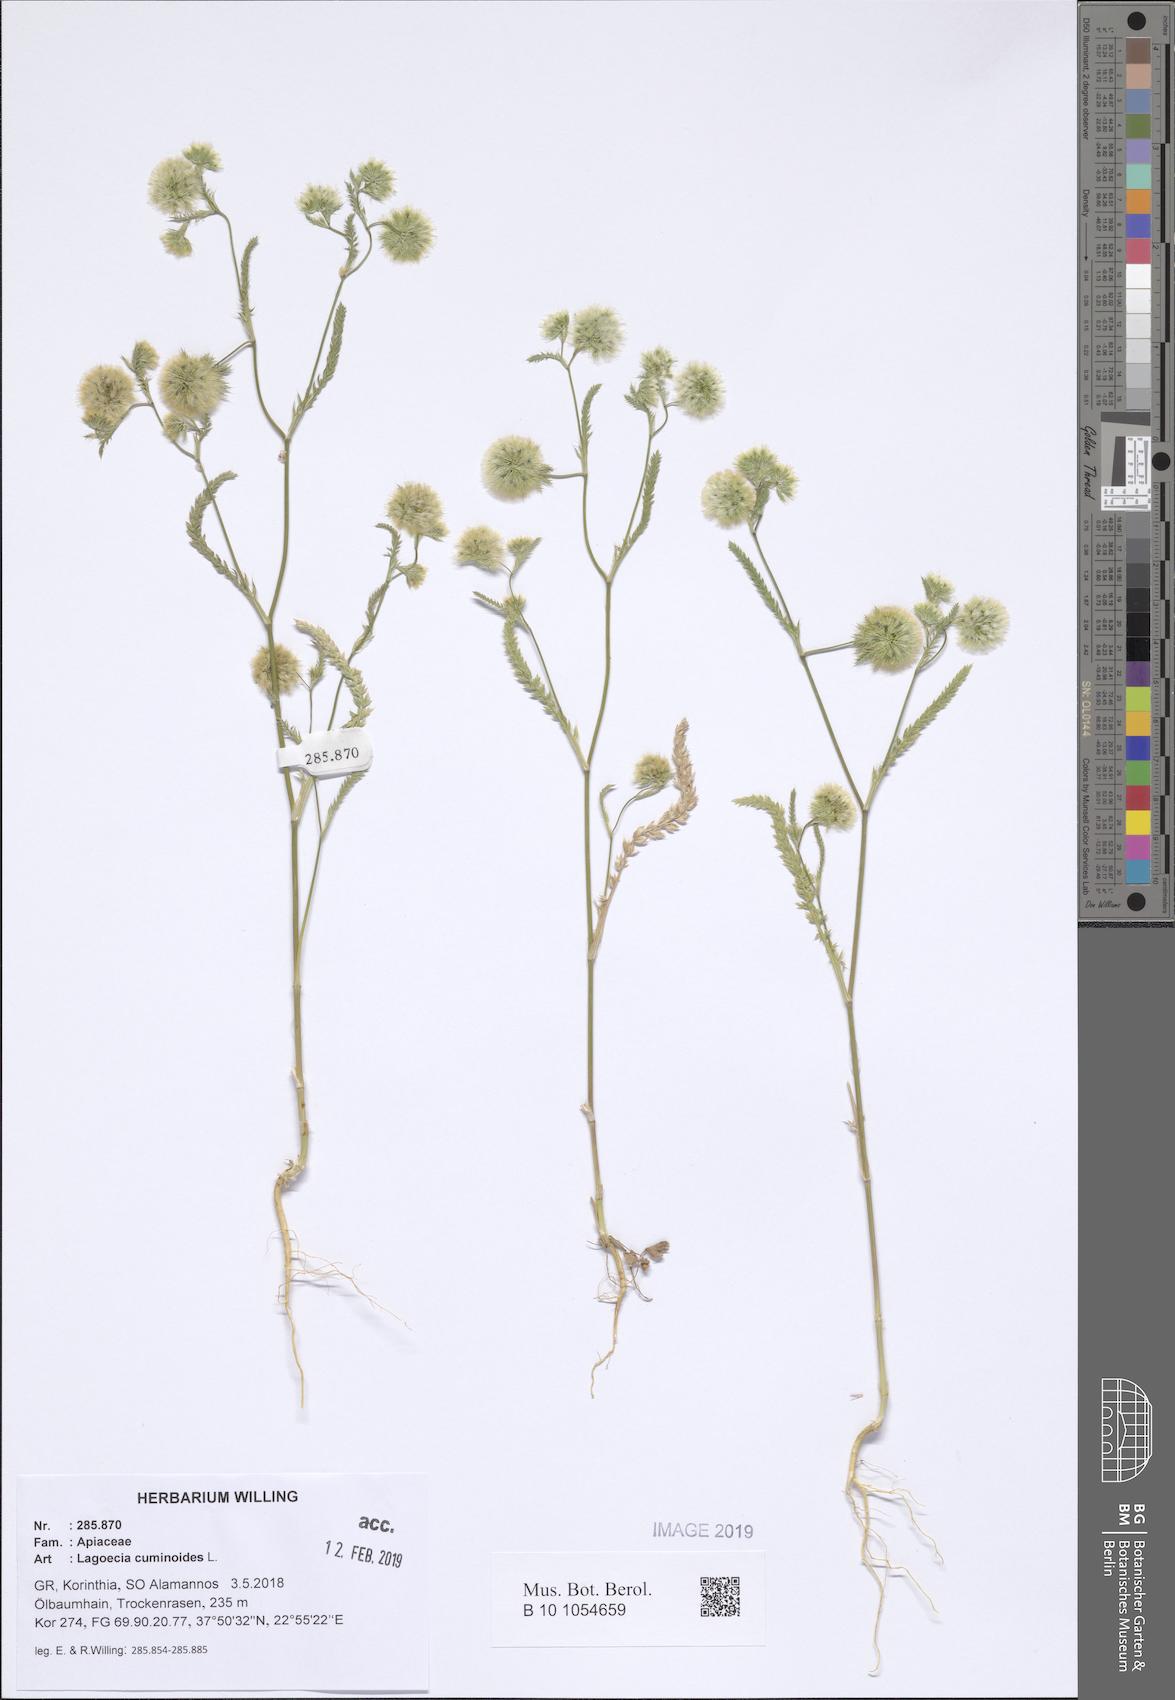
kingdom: Plantae
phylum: Tracheophyta
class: Magnoliopsida
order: Apiales
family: Apiaceae
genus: Lagoecia
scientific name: Lagoecia cuminoides
